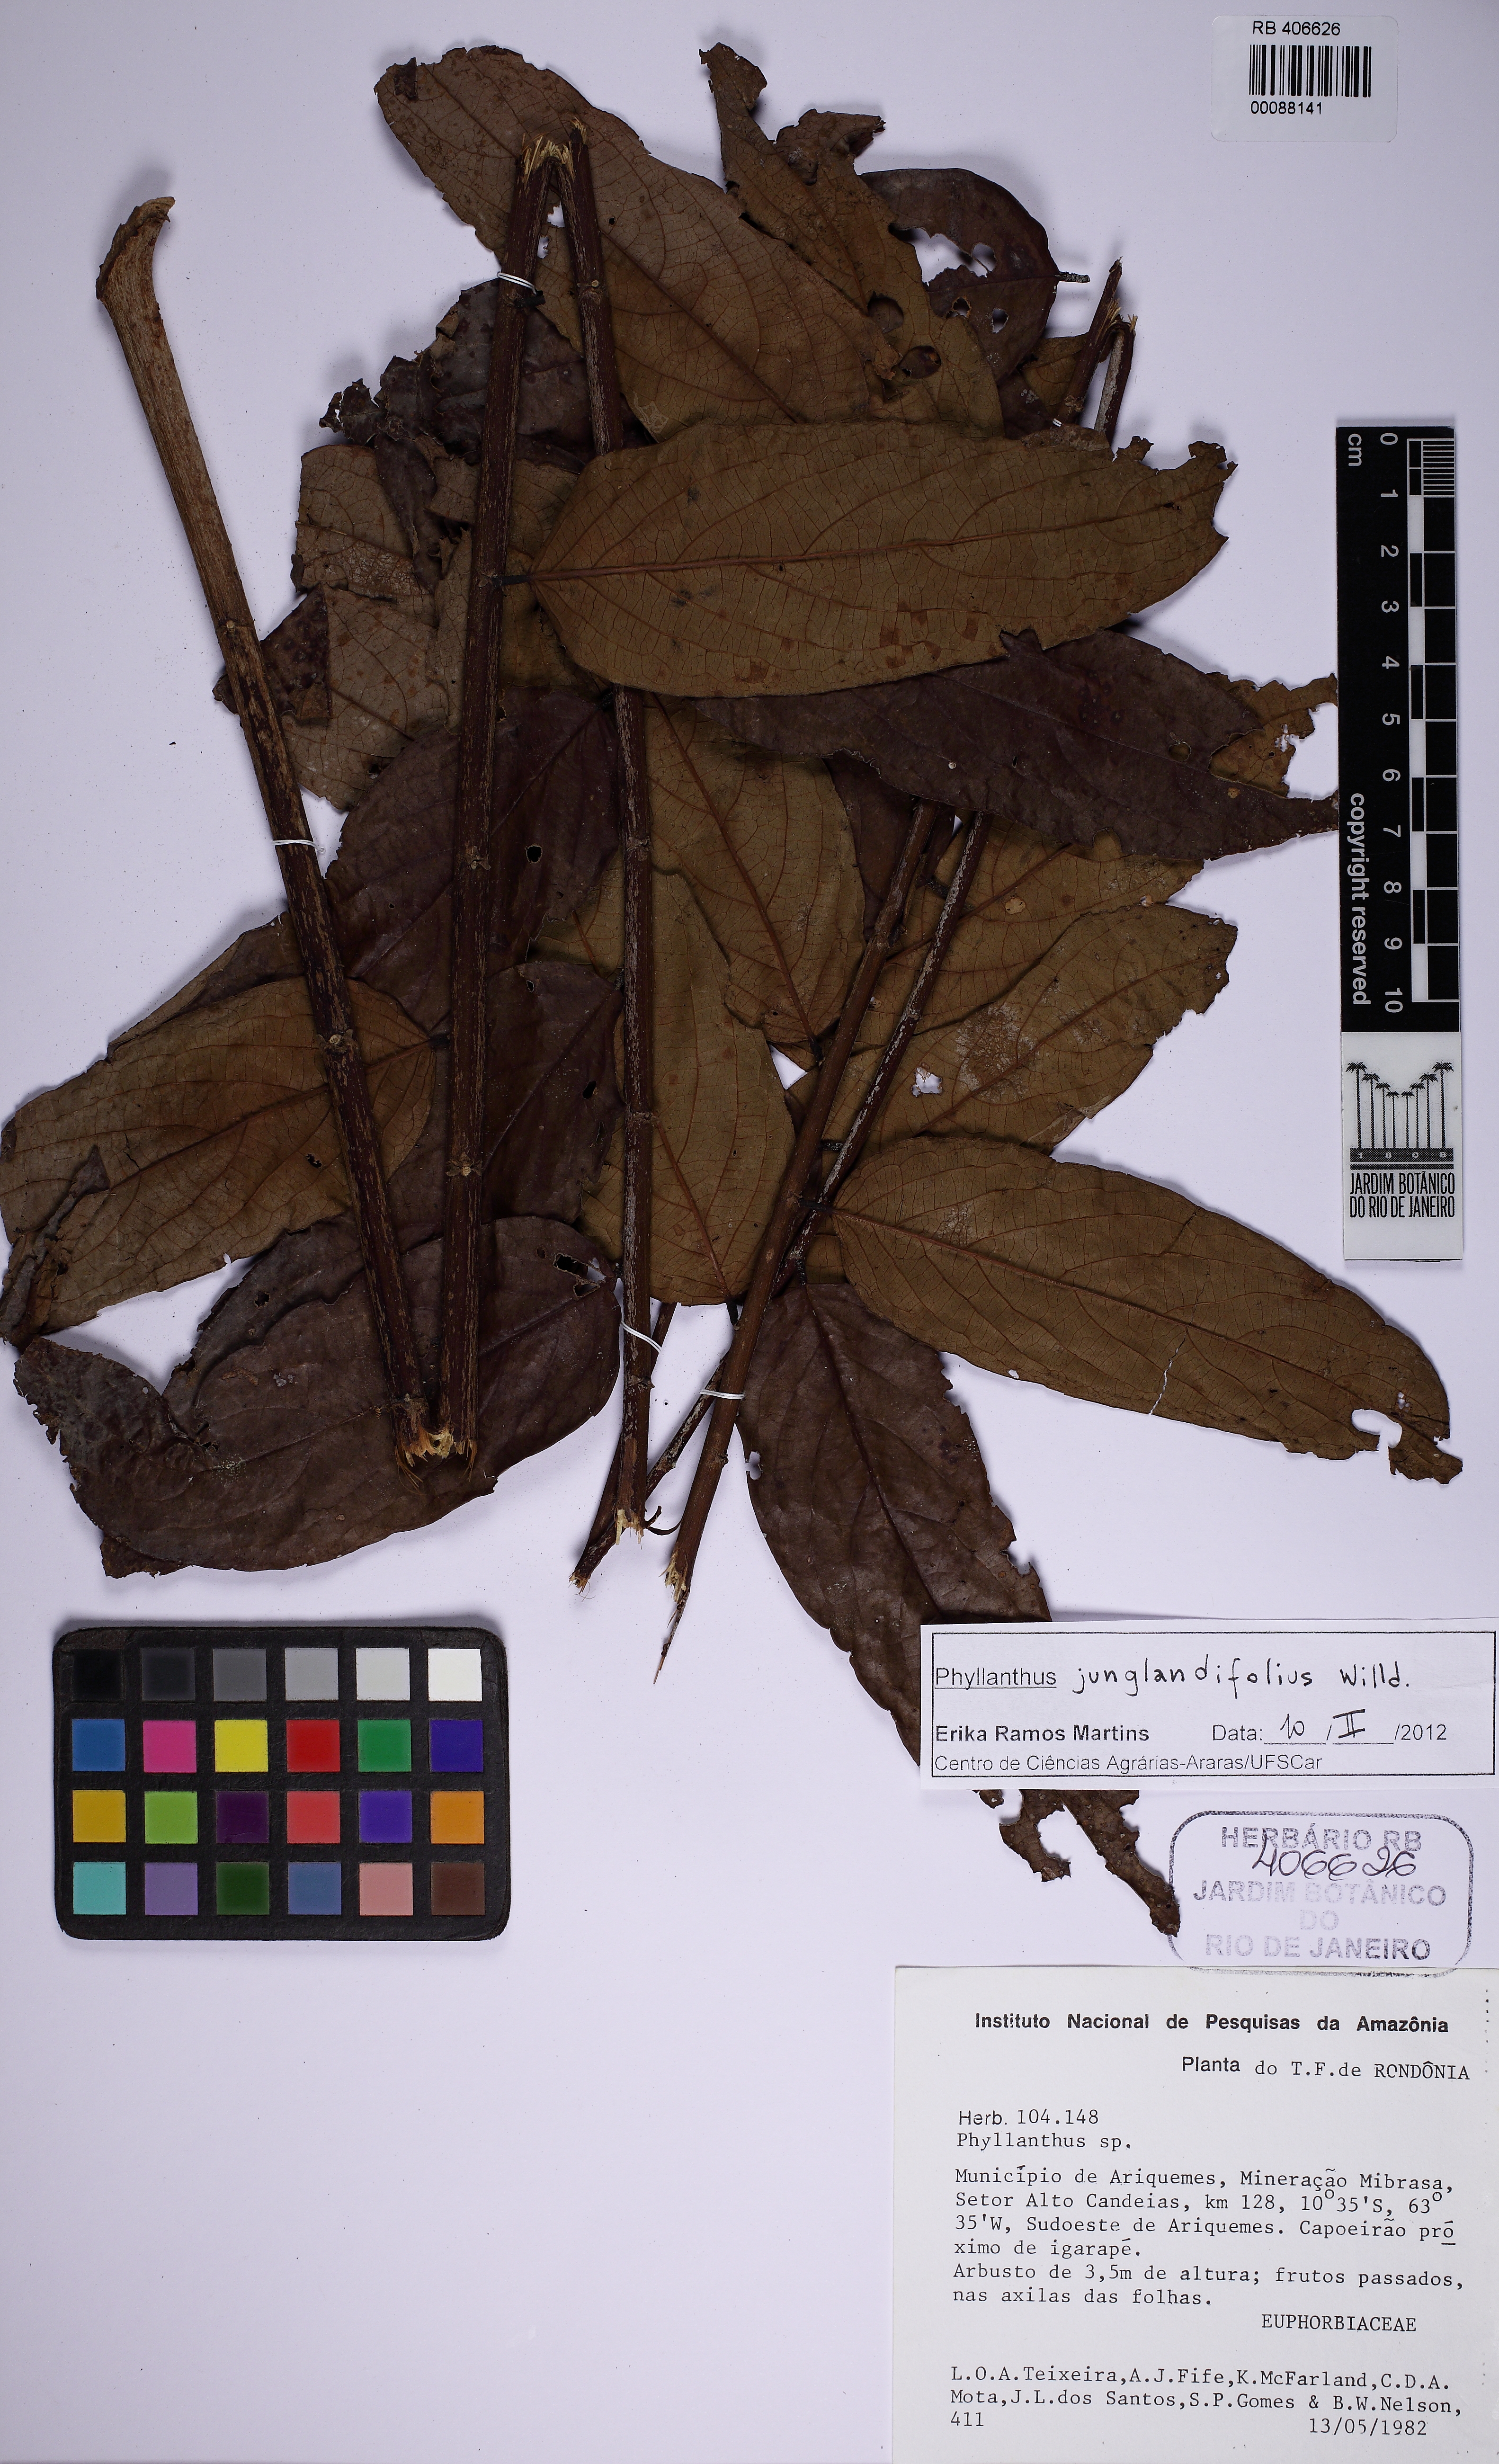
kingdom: Plantae
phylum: Tracheophyta
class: Magnoliopsida
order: Malpighiales
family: Phyllanthaceae
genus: Phyllanthus
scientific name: Phyllanthus juglandifolius
